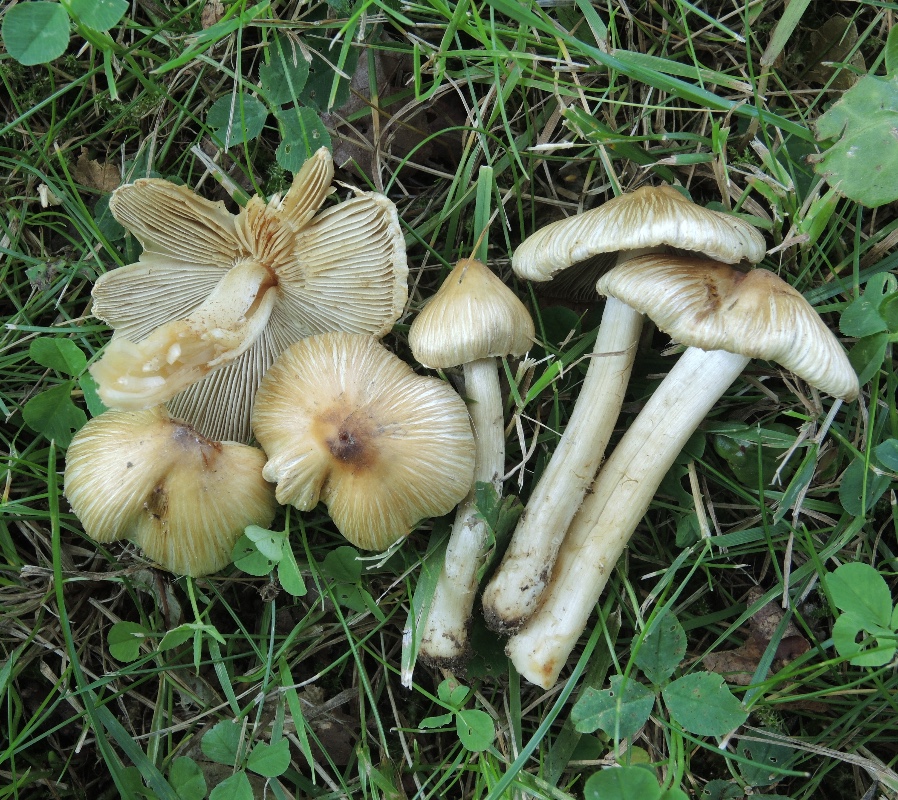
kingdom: Fungi
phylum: Basidiomycota
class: Agaricomycetes
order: Agaricales
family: Inocybaceae
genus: Pseudosperma
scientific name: Pseudosperma
